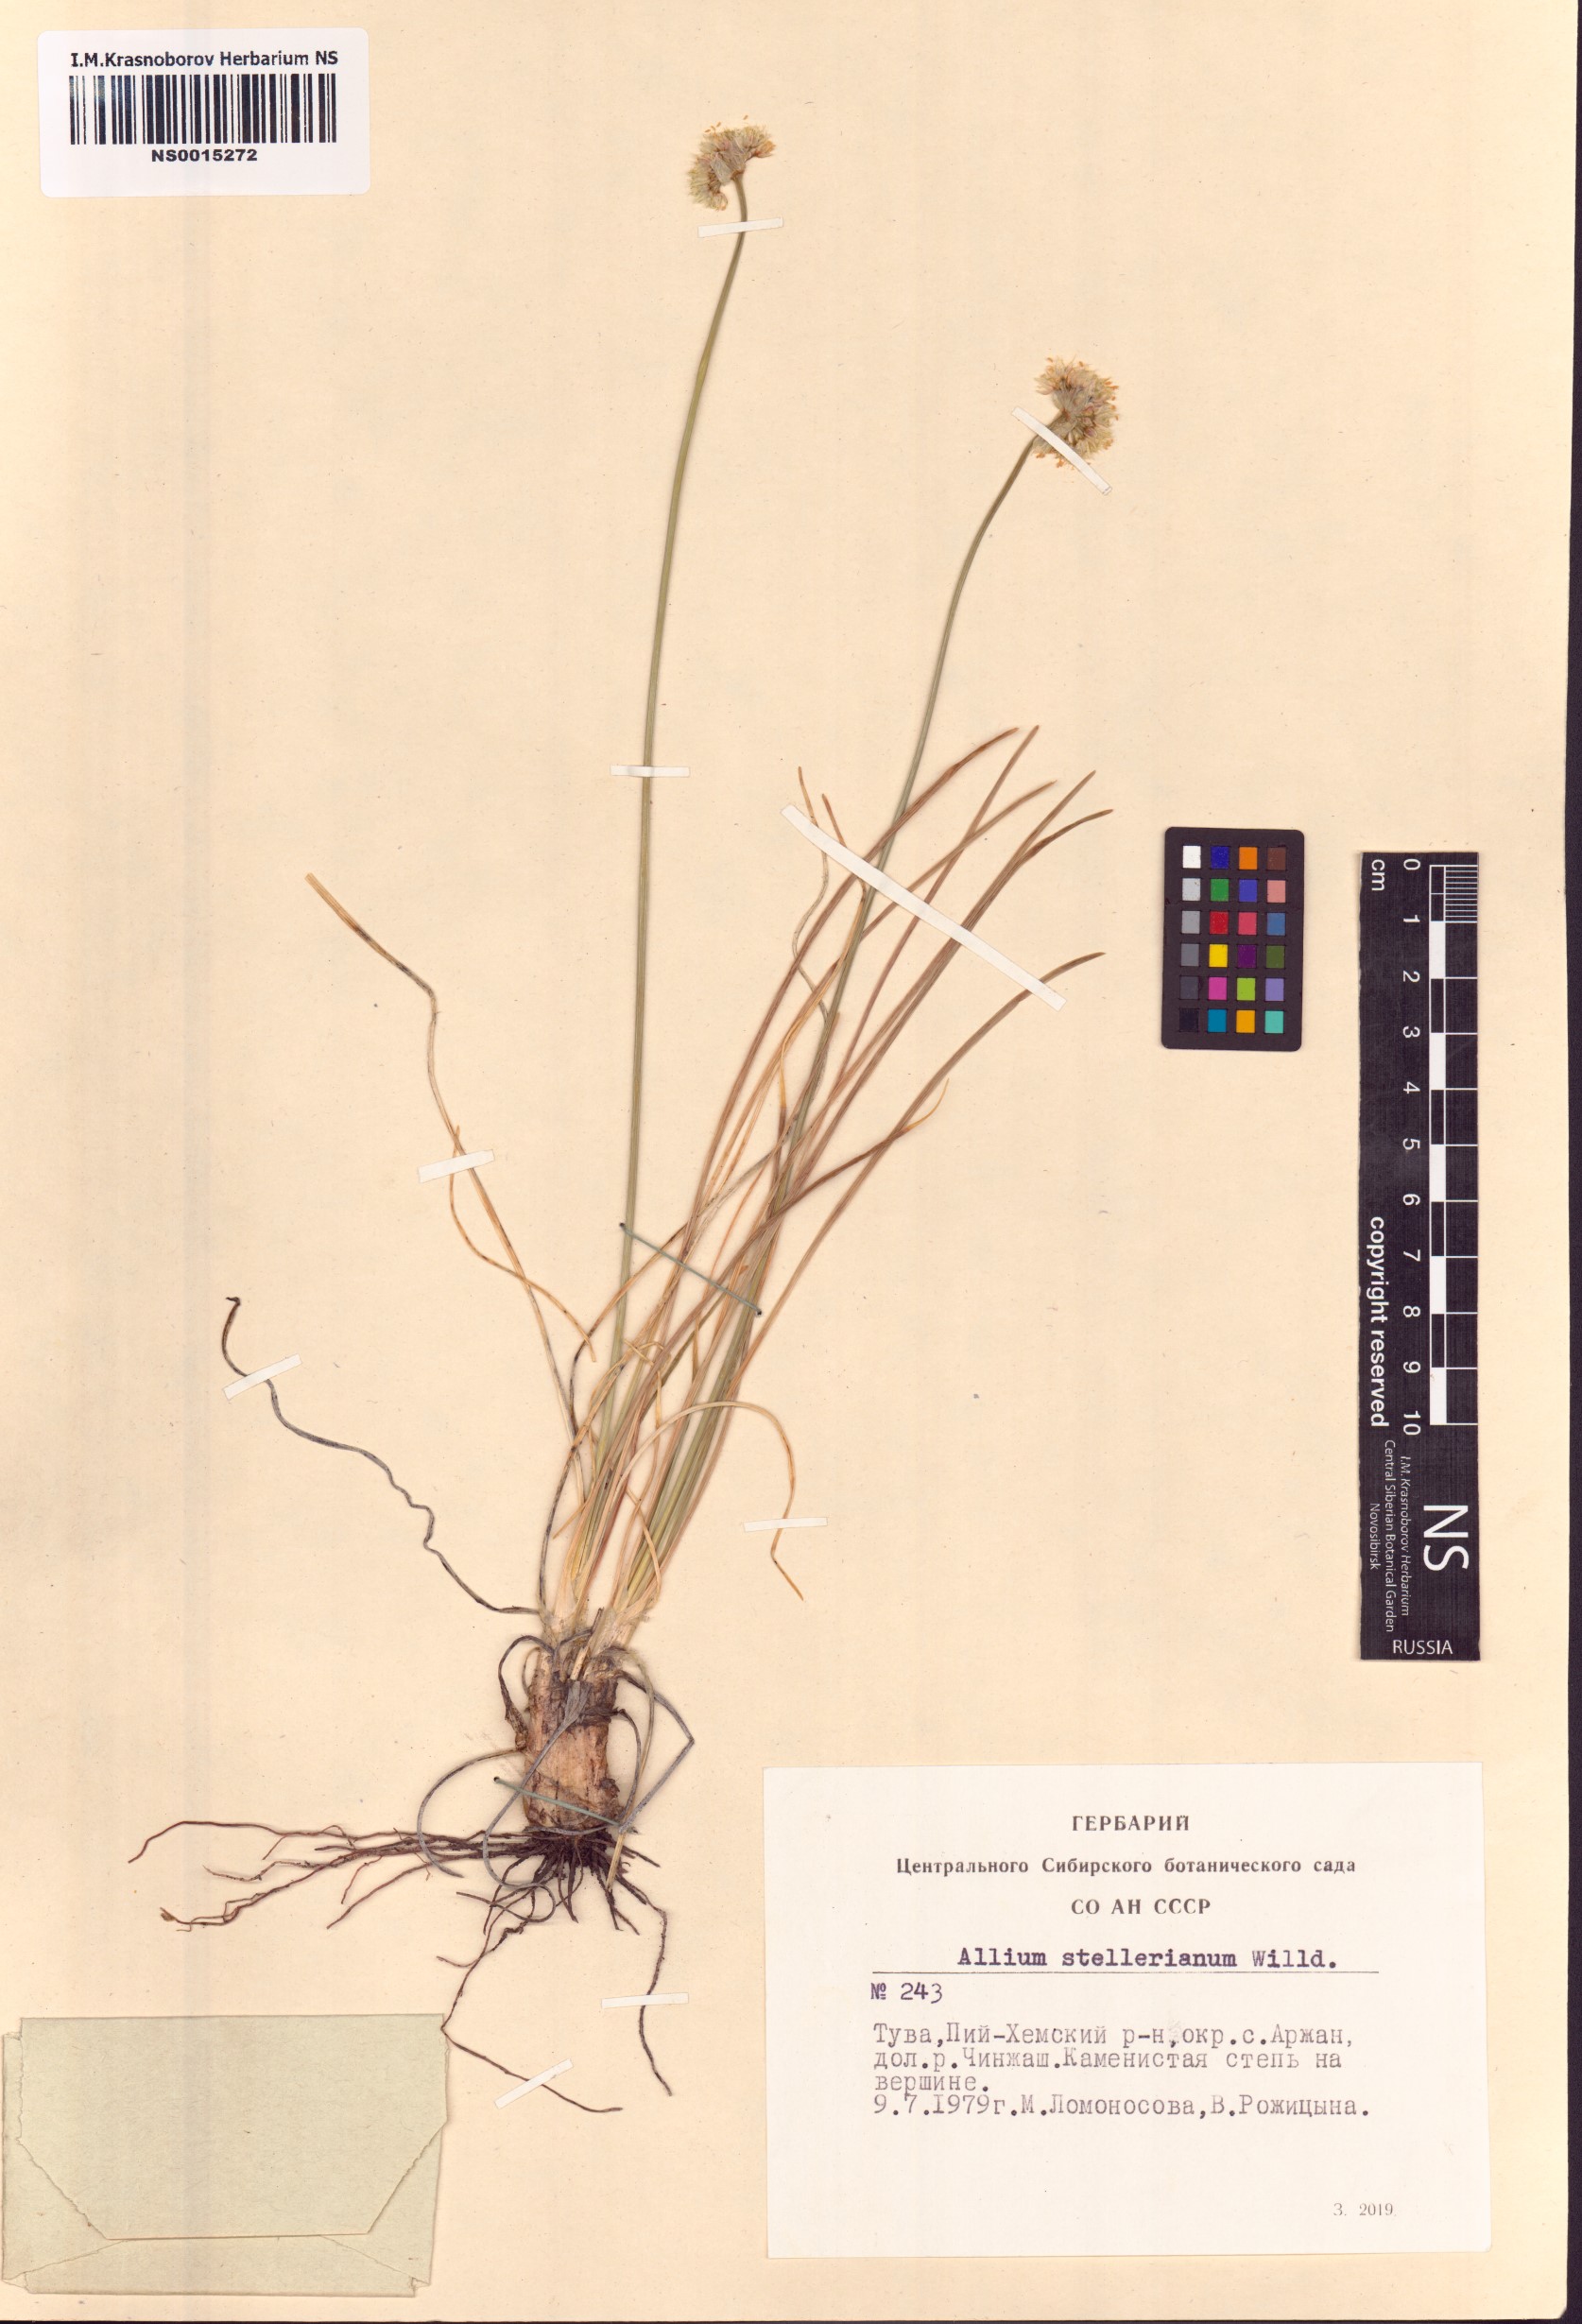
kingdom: Plantae
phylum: Tracheophyta
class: Liliopsida
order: Asparagales
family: Amaryllidaceae
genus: Allium
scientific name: Allium stellerianum
